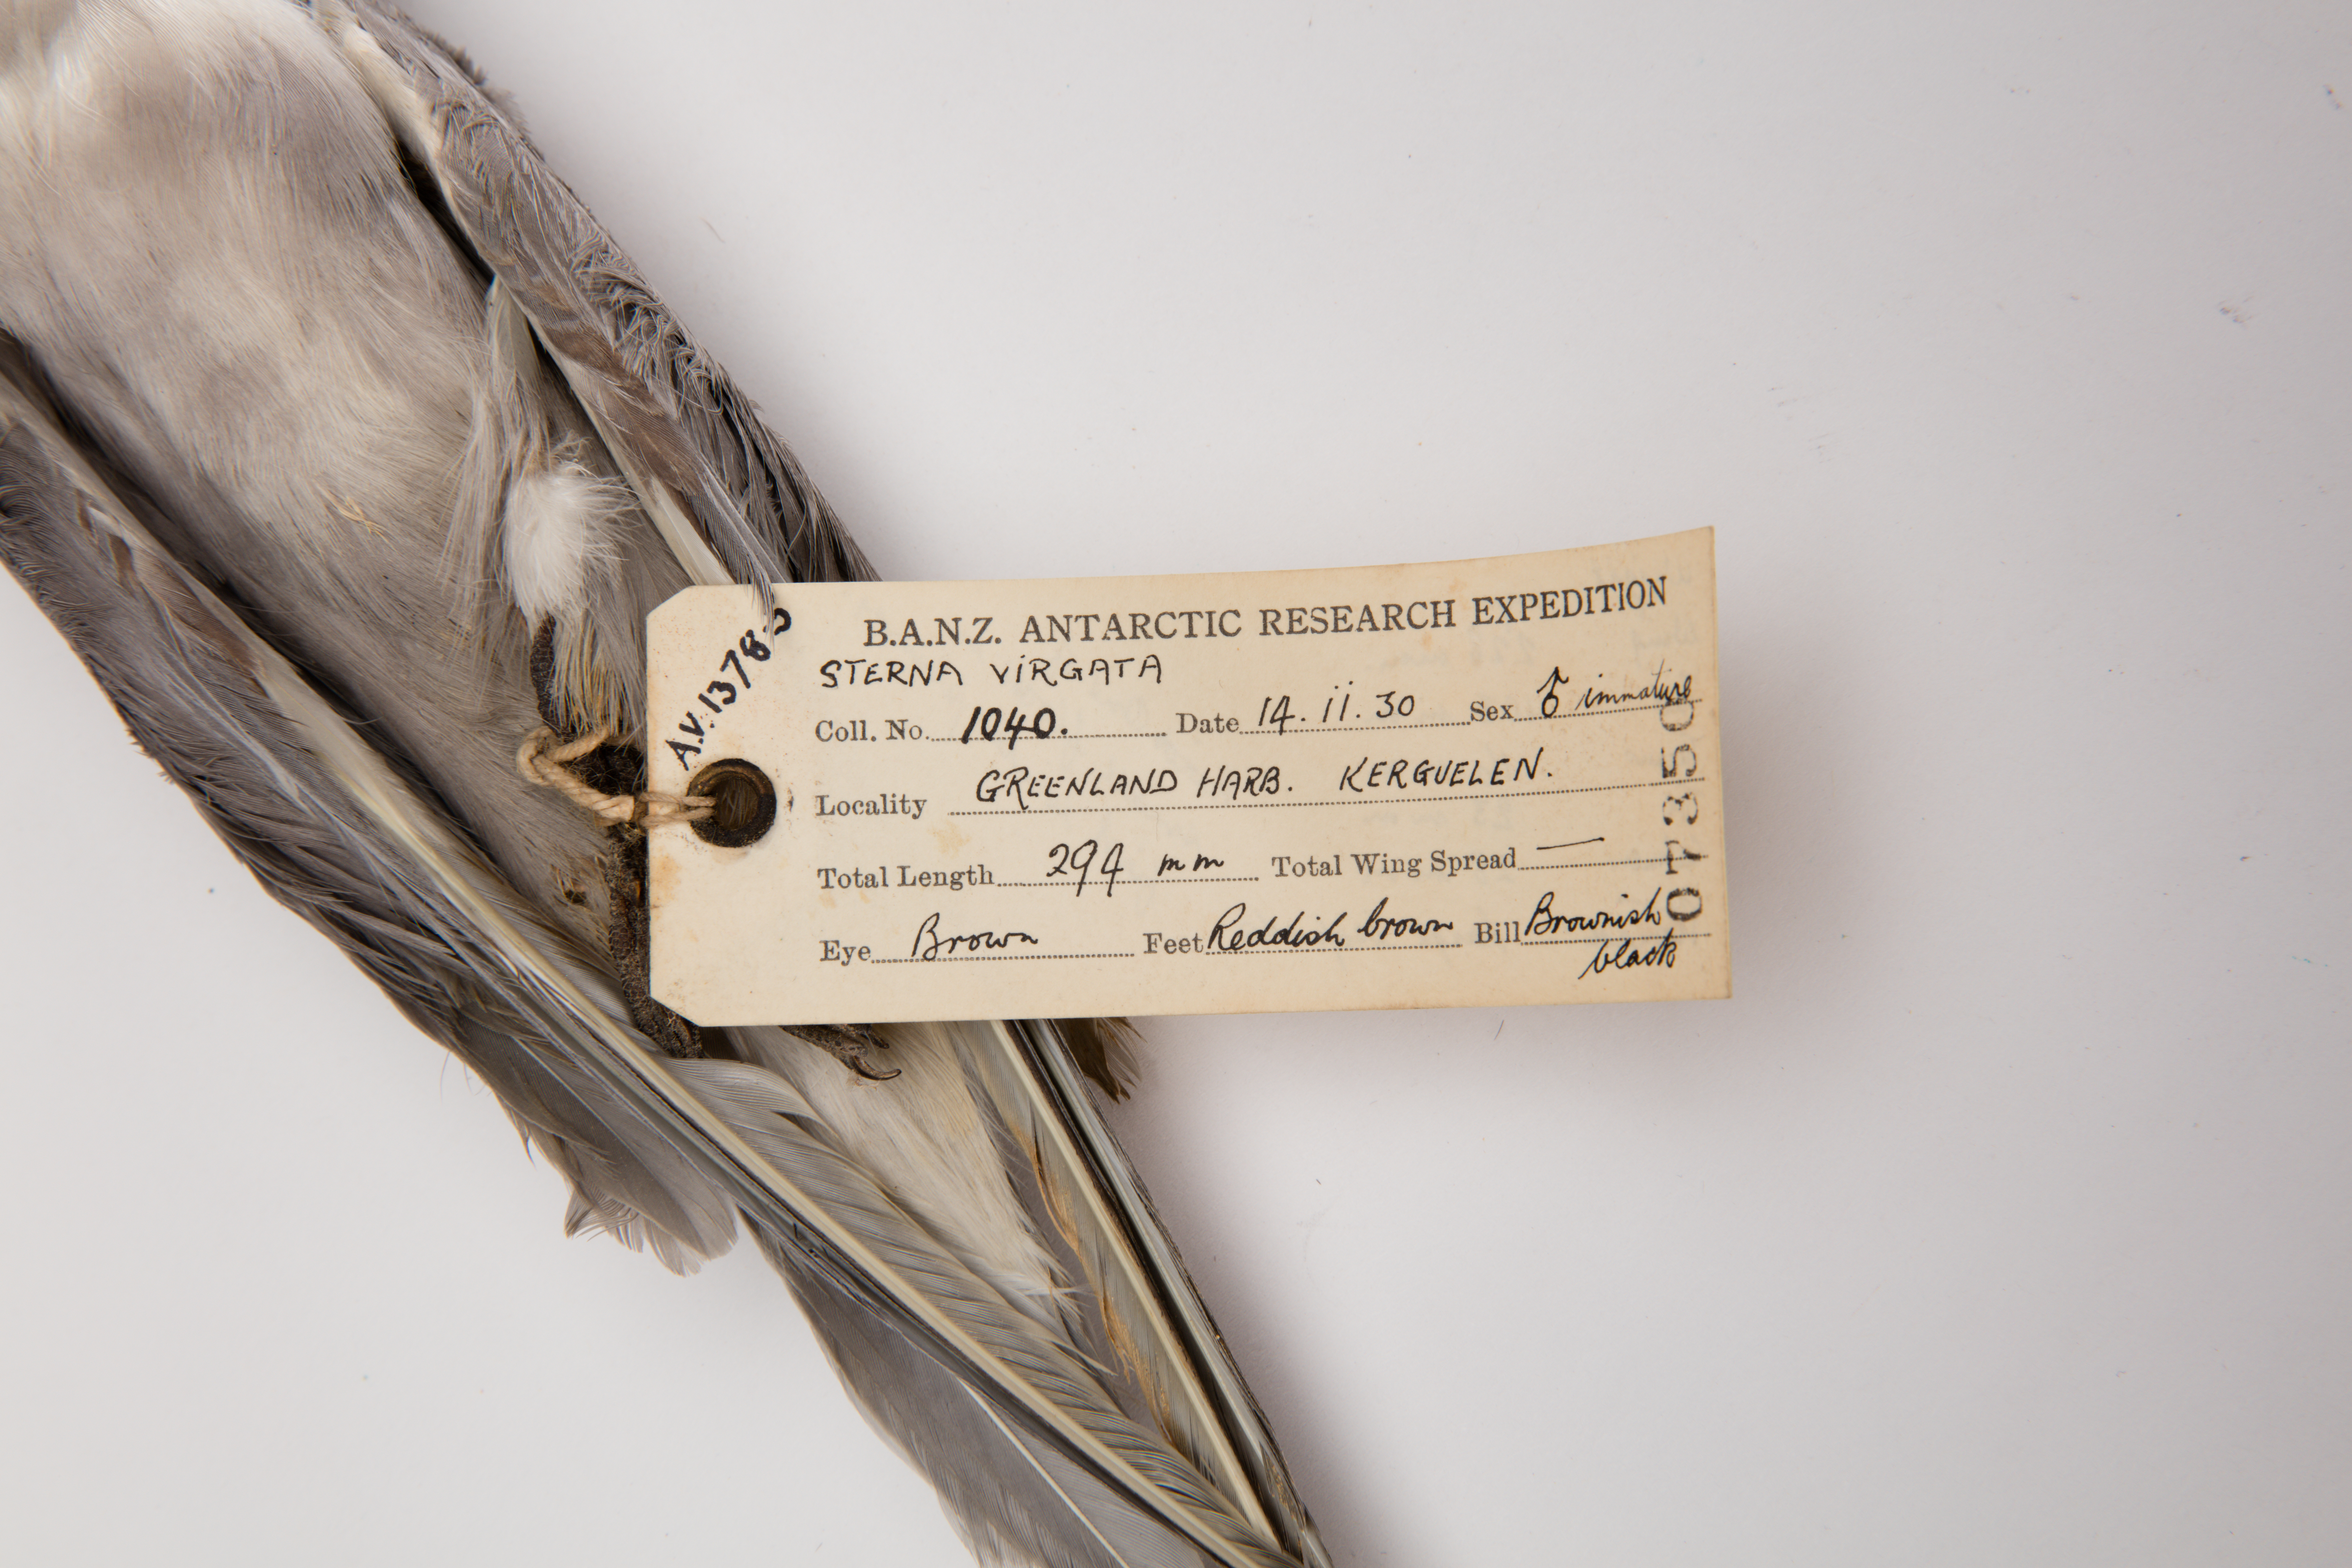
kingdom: Animalia
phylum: Chordata
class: Aves
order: Charadriiformes
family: Laridae
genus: Sterna
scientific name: Sterna virgata
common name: Kerguelen tern
